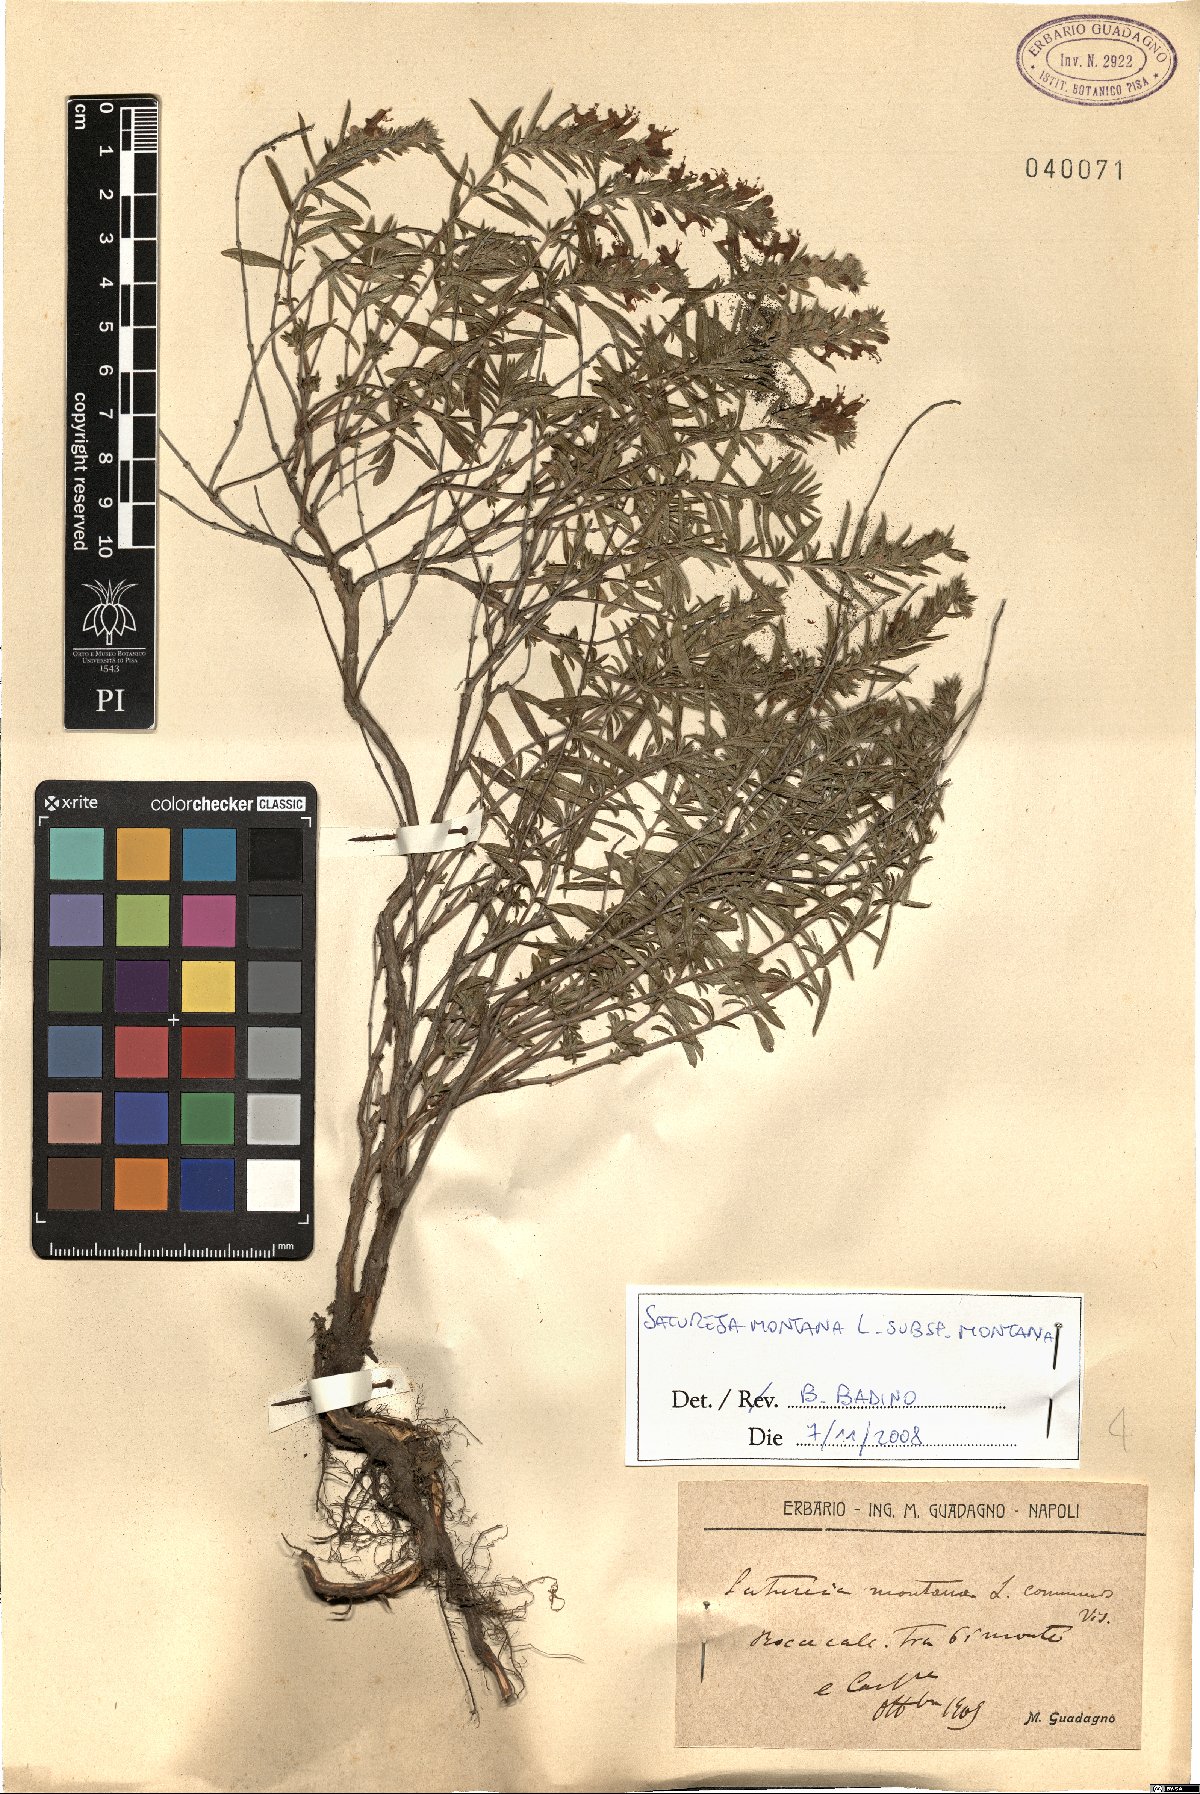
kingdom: Plantae
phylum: Tracheophyta
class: Magnoliopsida
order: Lamiales
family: Lamiaceae
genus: Satureja
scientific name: Satureja montana
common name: Winter savory
